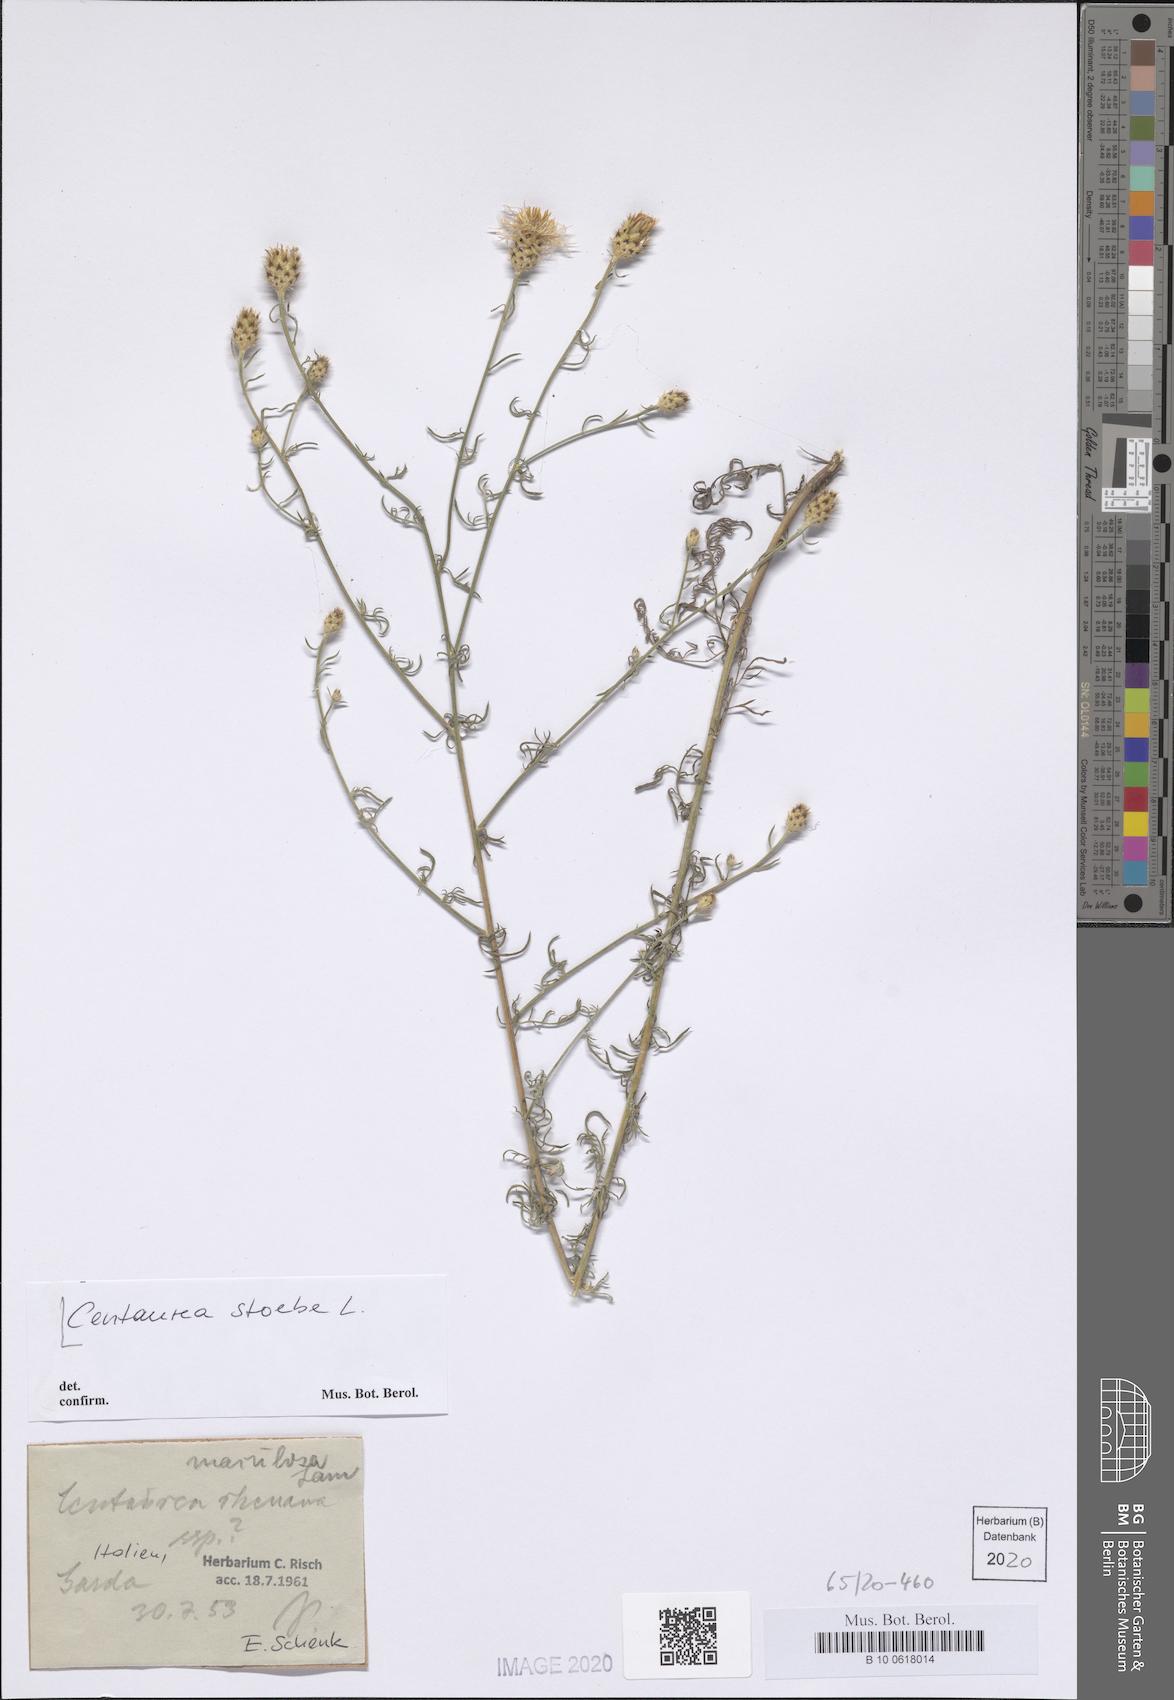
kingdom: Plantae
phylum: Tracheophyta
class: Magnoliopsida
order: Asterales
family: Asteraceae
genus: Centaurea
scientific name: Centaurea stoebe
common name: Spotted knapweed
